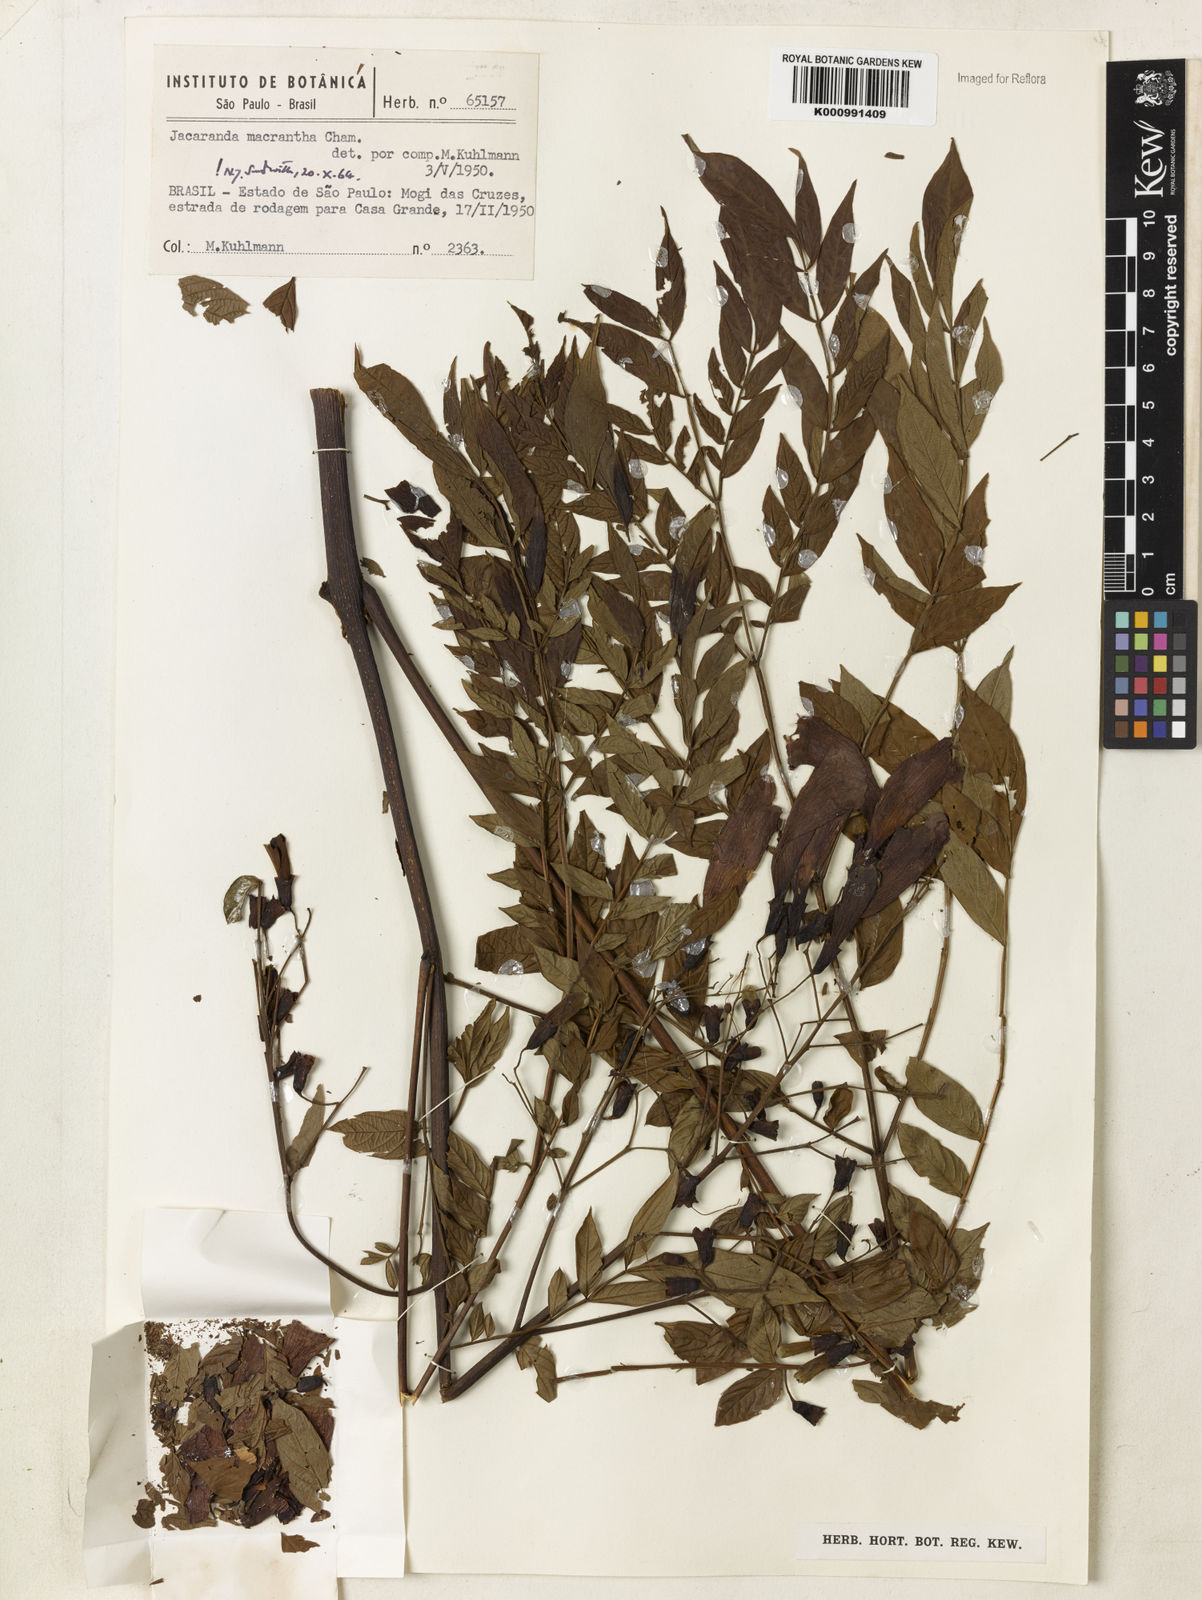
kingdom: Plantae
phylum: Tracheophyta
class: Magnoliopsida
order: Lamiales
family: Bignoniaceae
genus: Jacaranda
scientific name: Jacaranda micrantha
